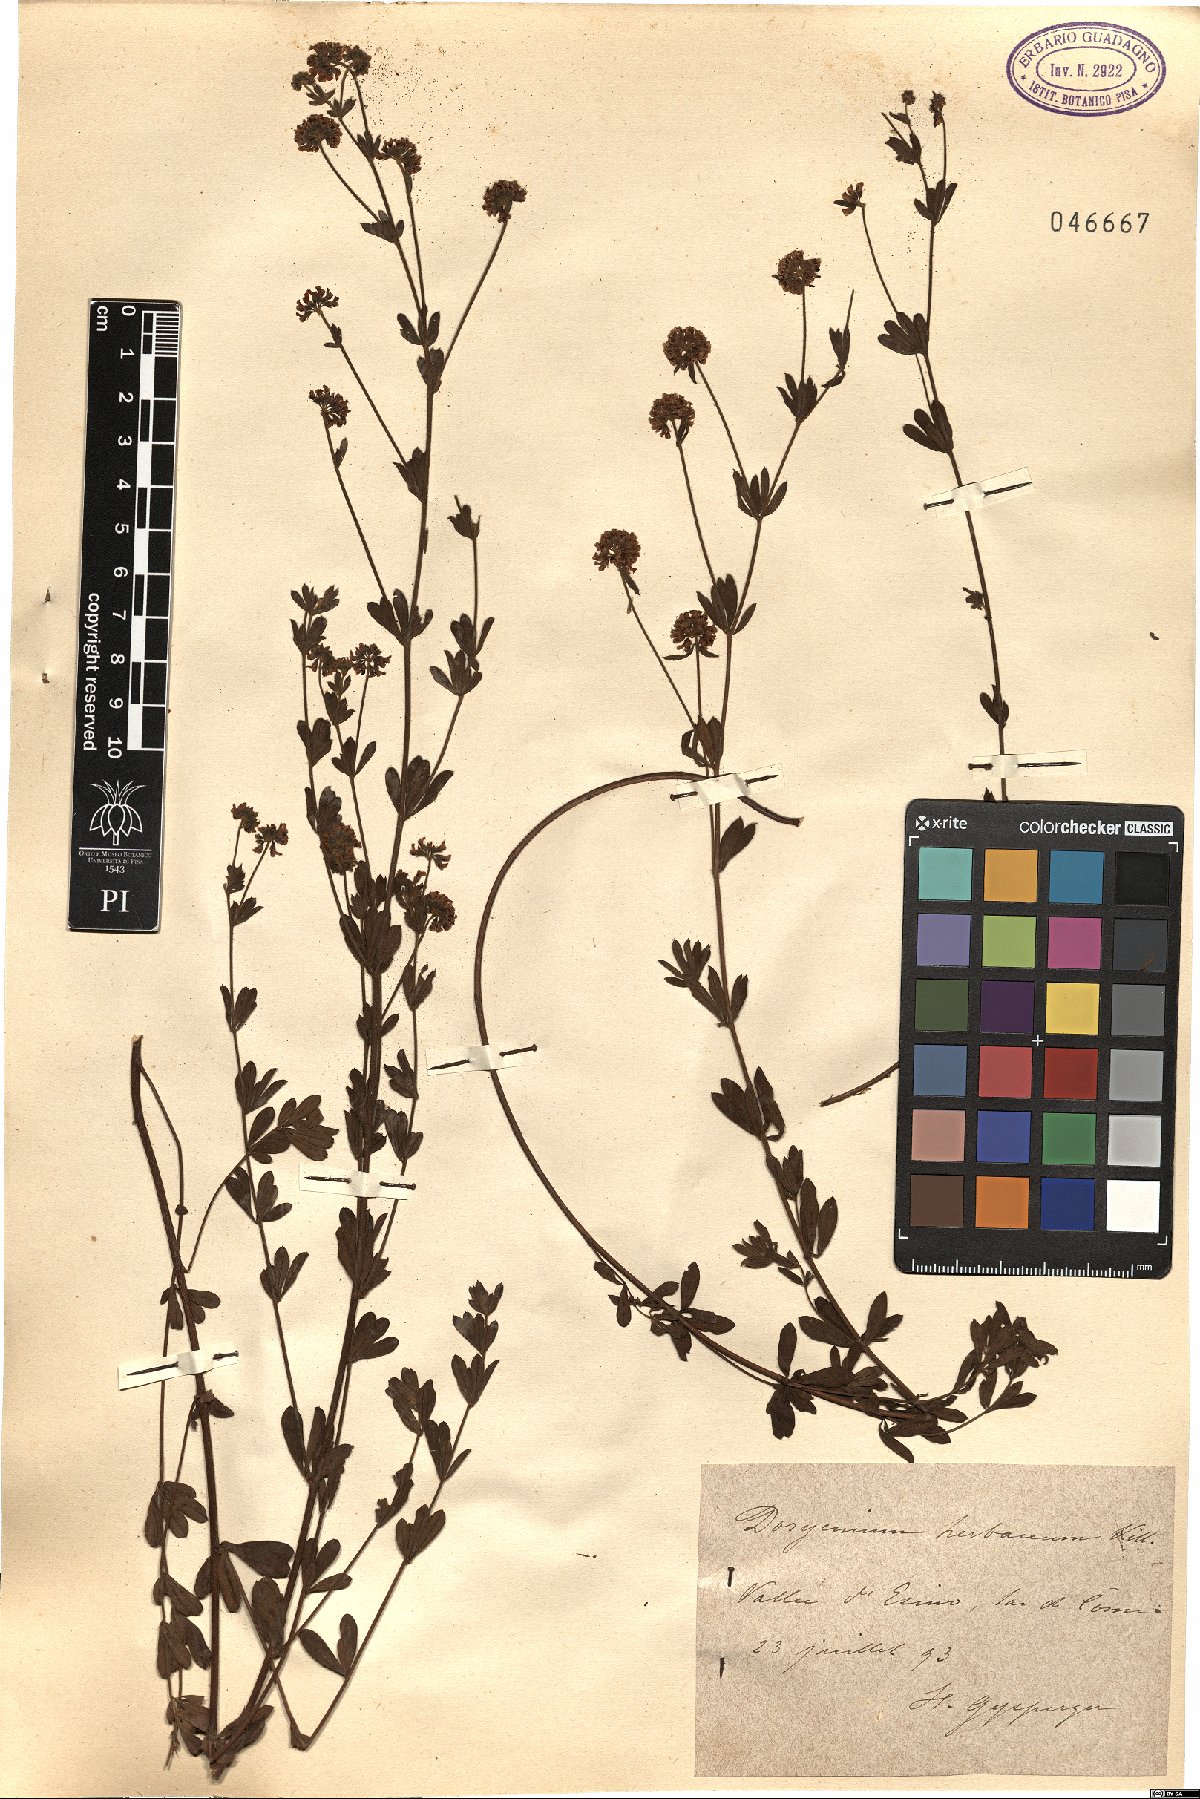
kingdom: Plantae
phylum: Tracheophyta
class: Magnoliopsida
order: Fabales
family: Fabaceae
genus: Lotus
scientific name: Lotus herbaceus
